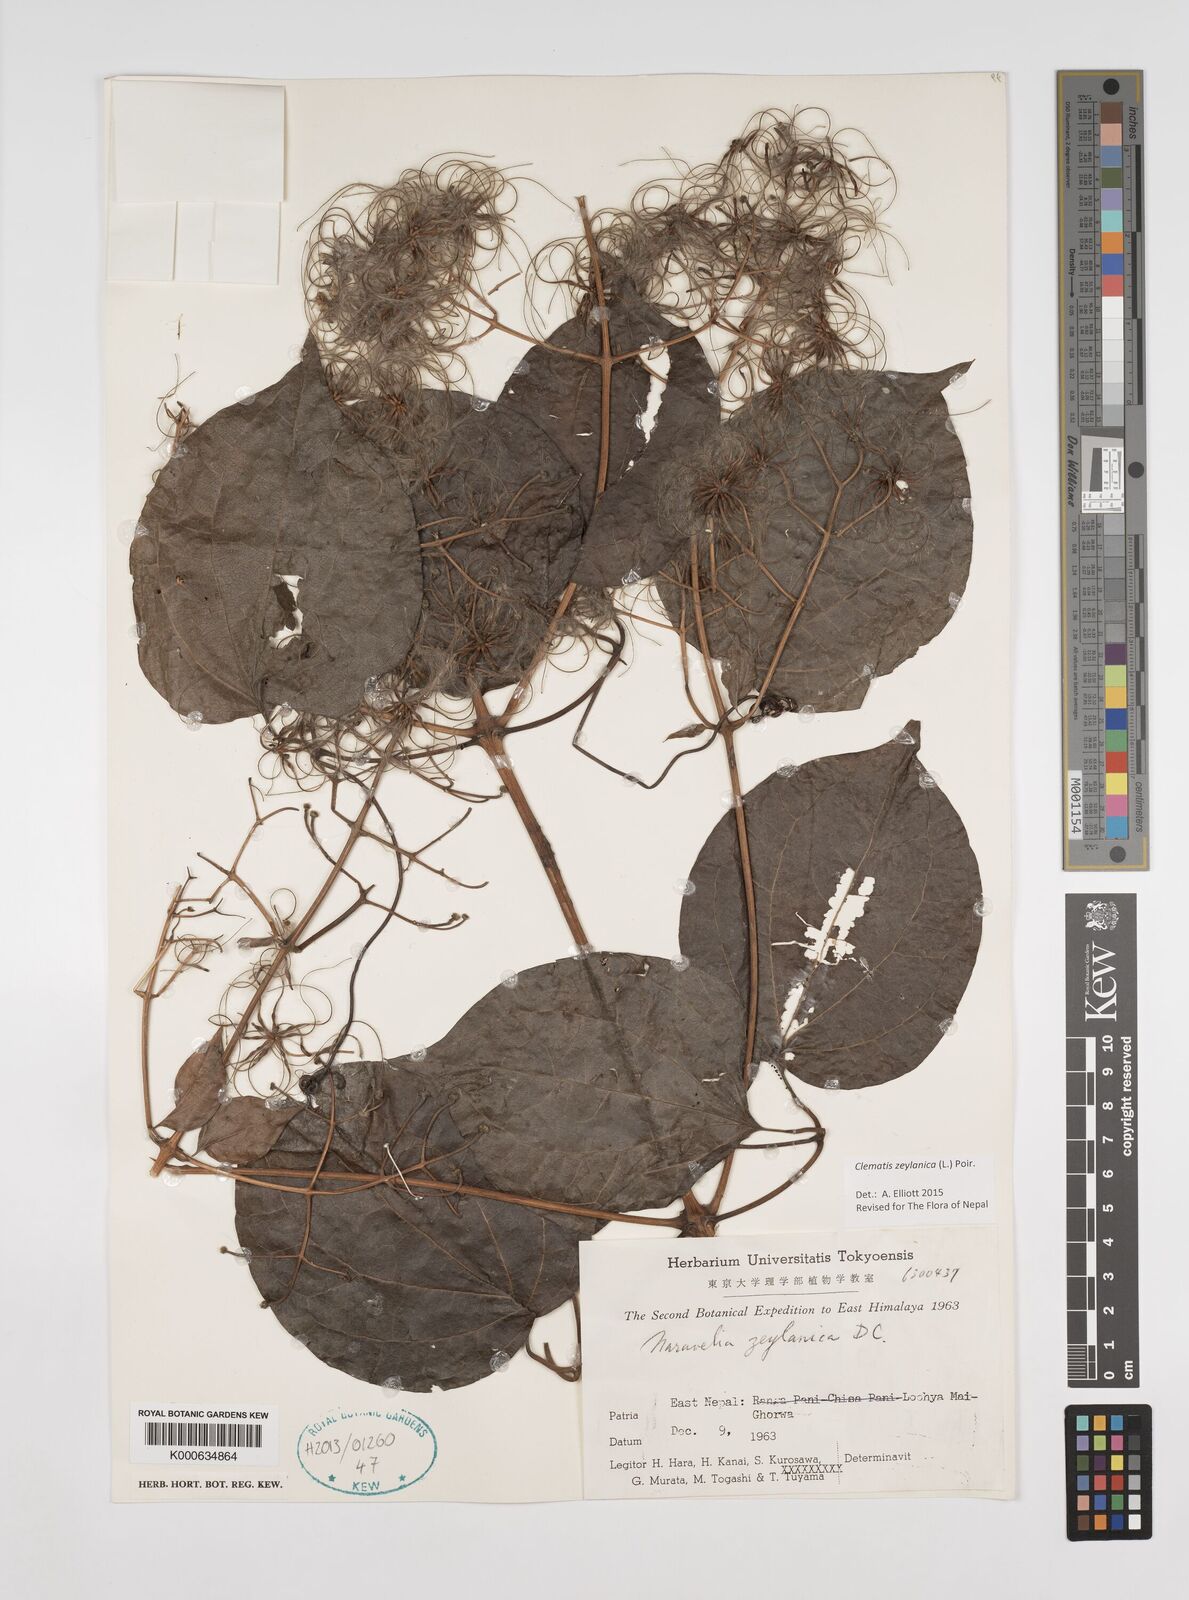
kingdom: Plantae
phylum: Tracheophyta
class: Magnoliopsida
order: Ranunculales
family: Ranunculaceae
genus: Clematis
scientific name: Clematis zeylanica
